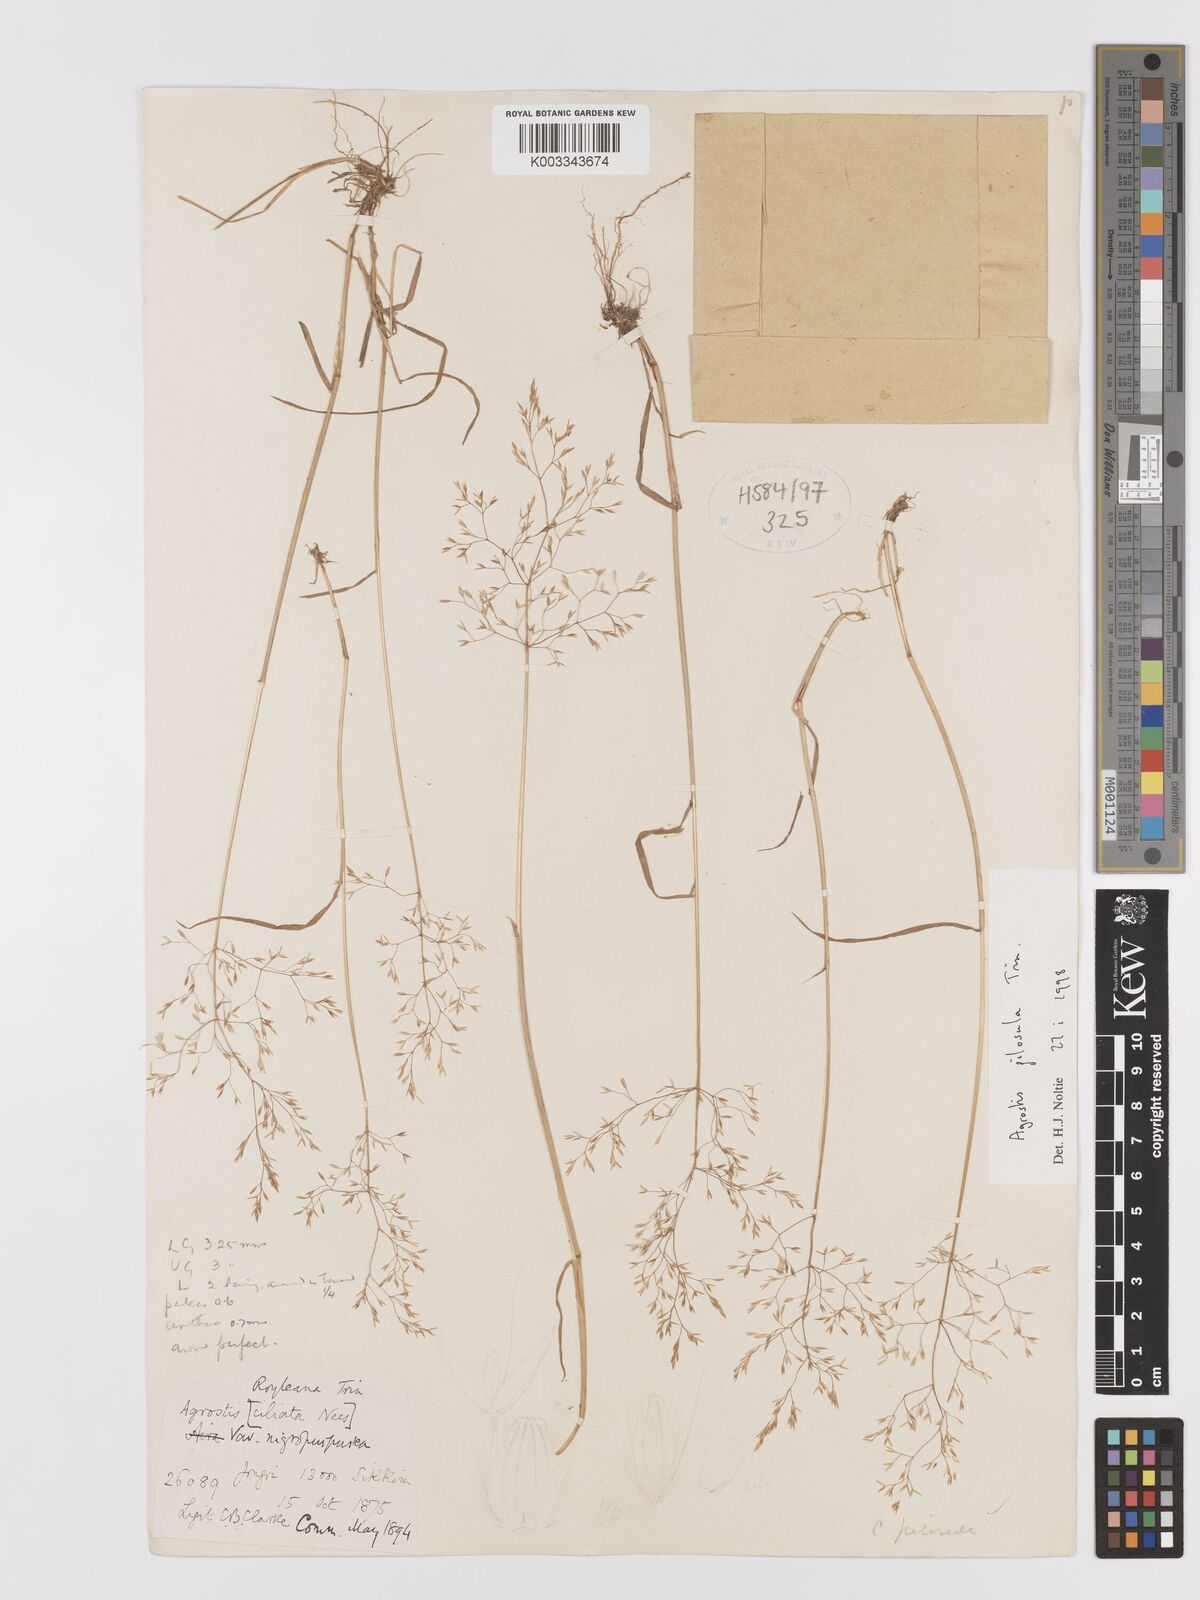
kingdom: Plantae
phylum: Tracheophyta
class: Liliopsida
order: Poales
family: Poaceae
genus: Agrostis
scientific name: Agrostis pilosula
